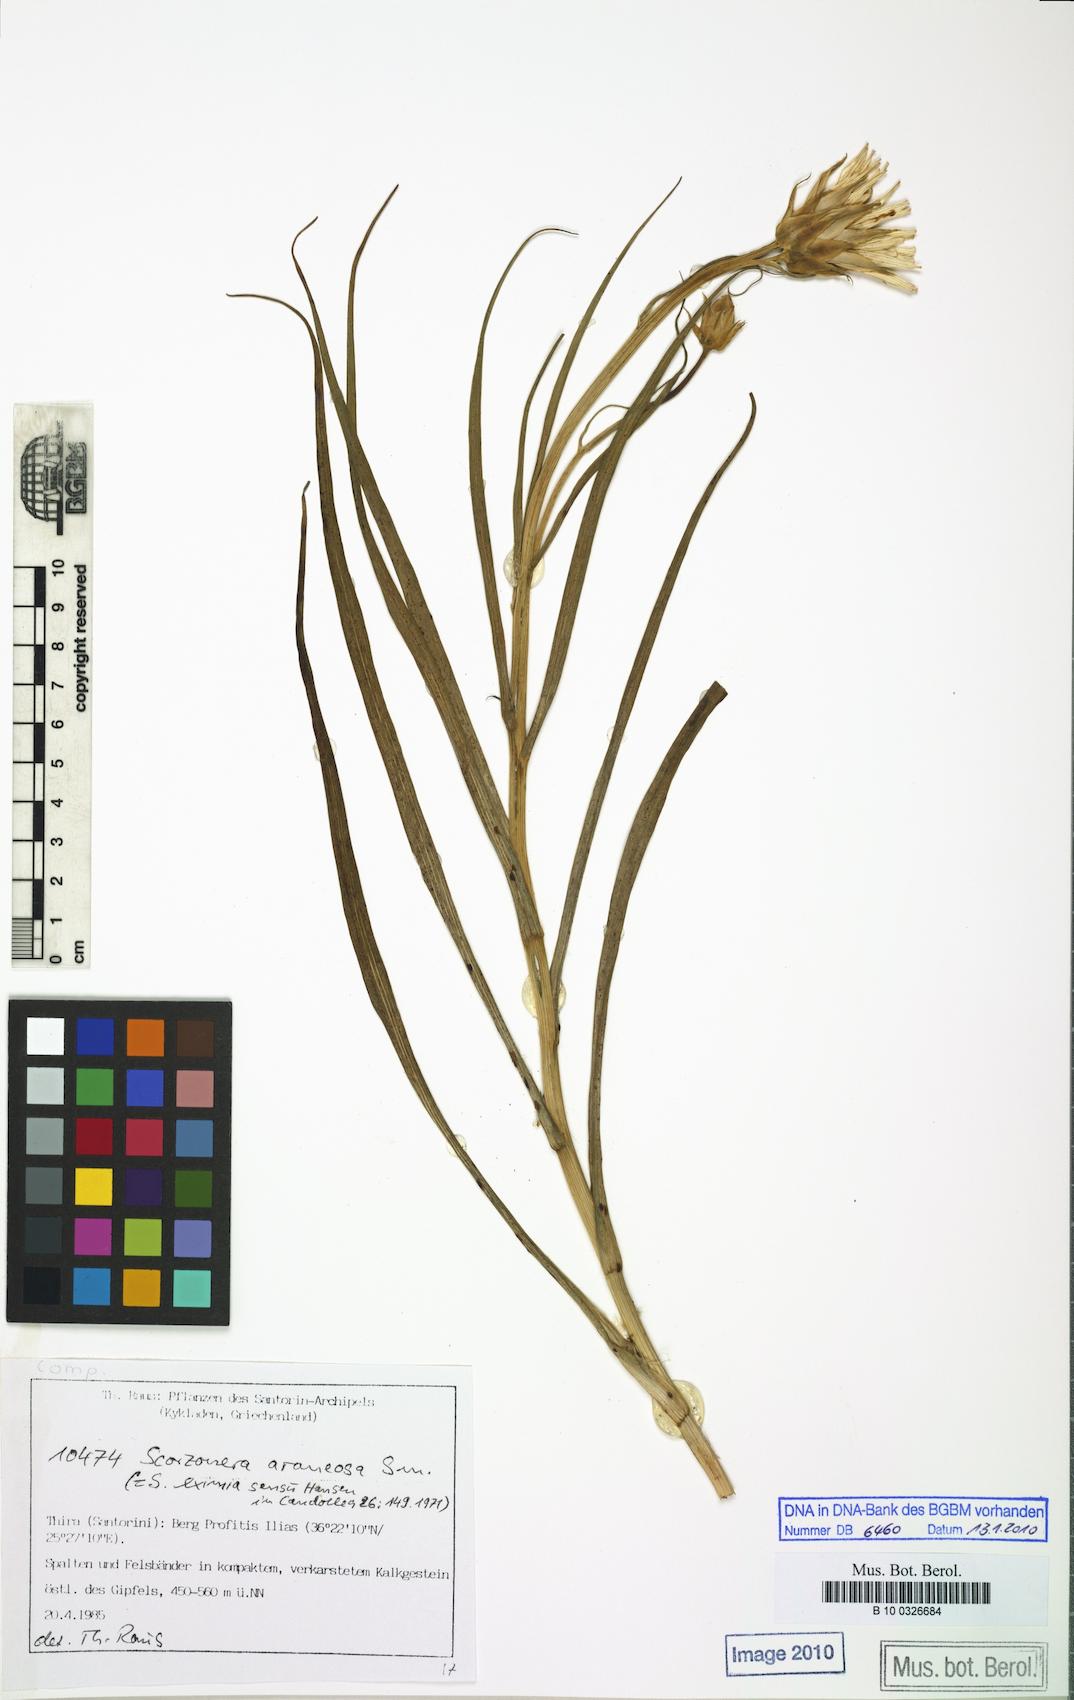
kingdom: Plantae
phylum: Tracheophyta
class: Magnoliopsida
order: Asterales
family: Asteraceae
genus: Gelasia
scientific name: Gelasia araneosa
